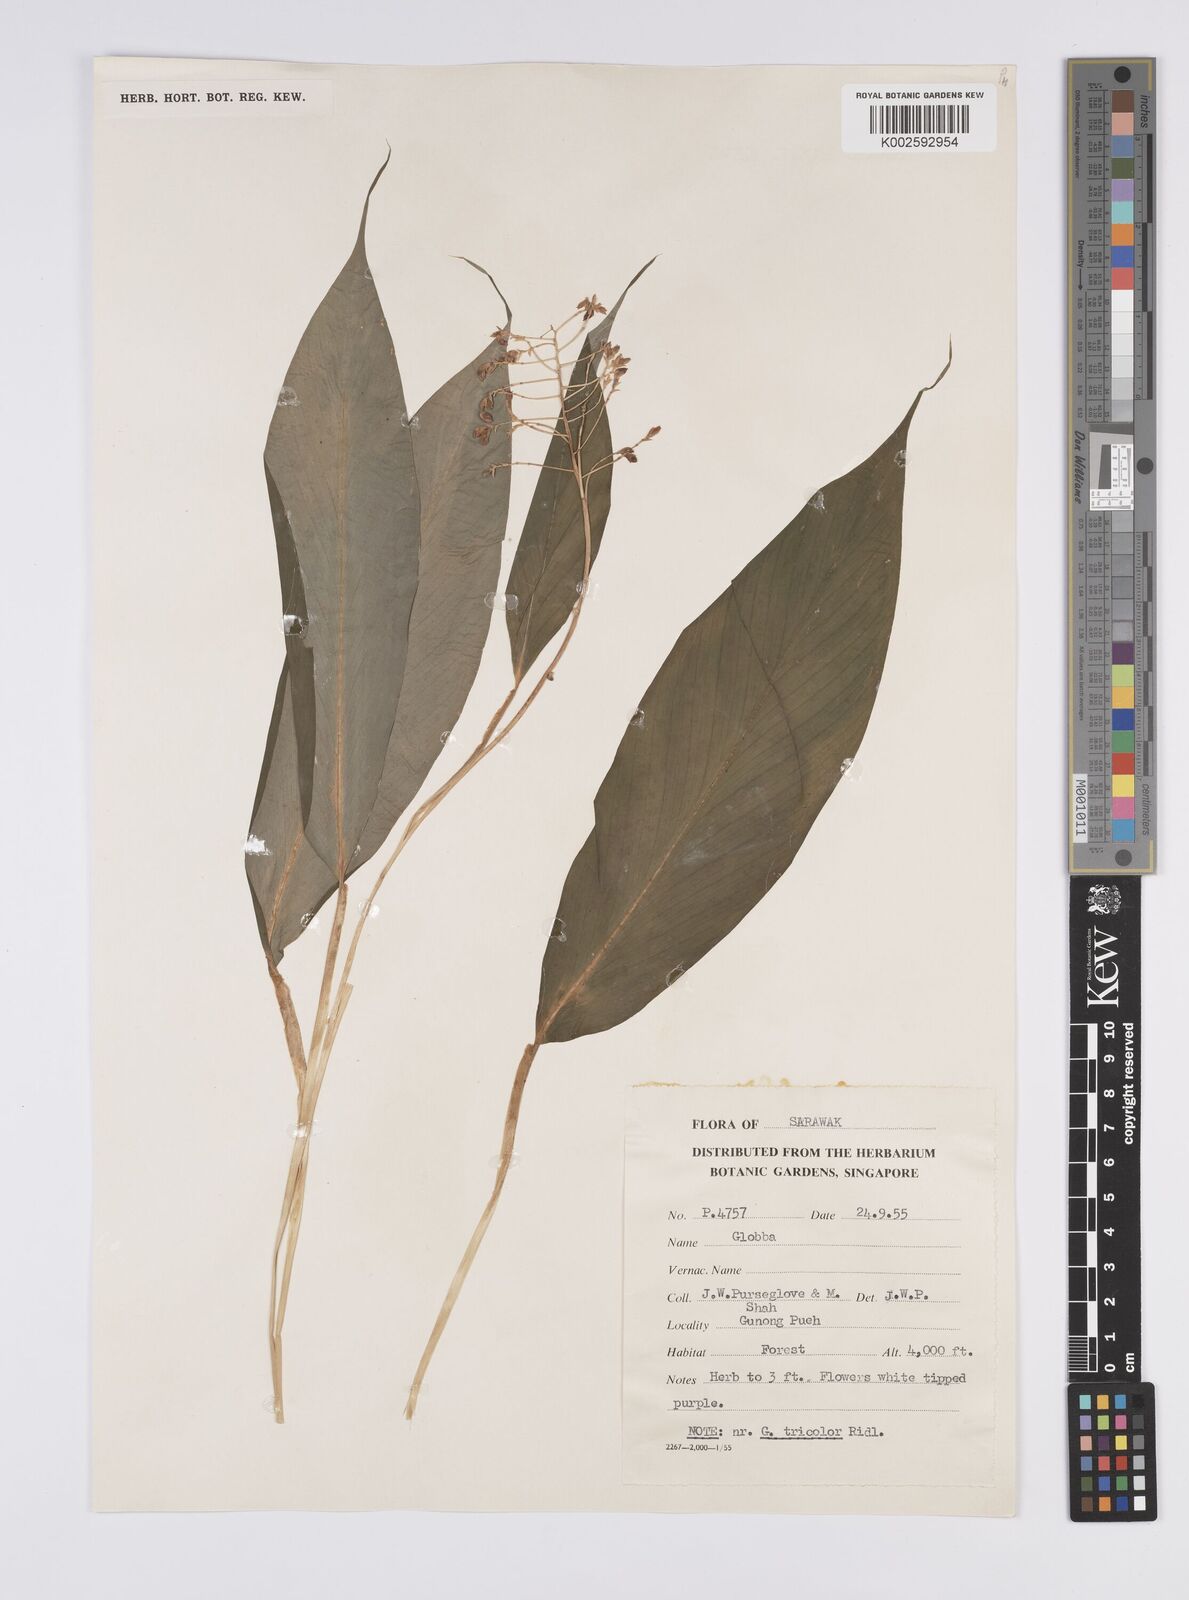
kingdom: Plantae
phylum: Tracheophyta
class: Liliopsida
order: Zingiberales
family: Zingiberaceae
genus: Globba
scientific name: Globba tricolor
